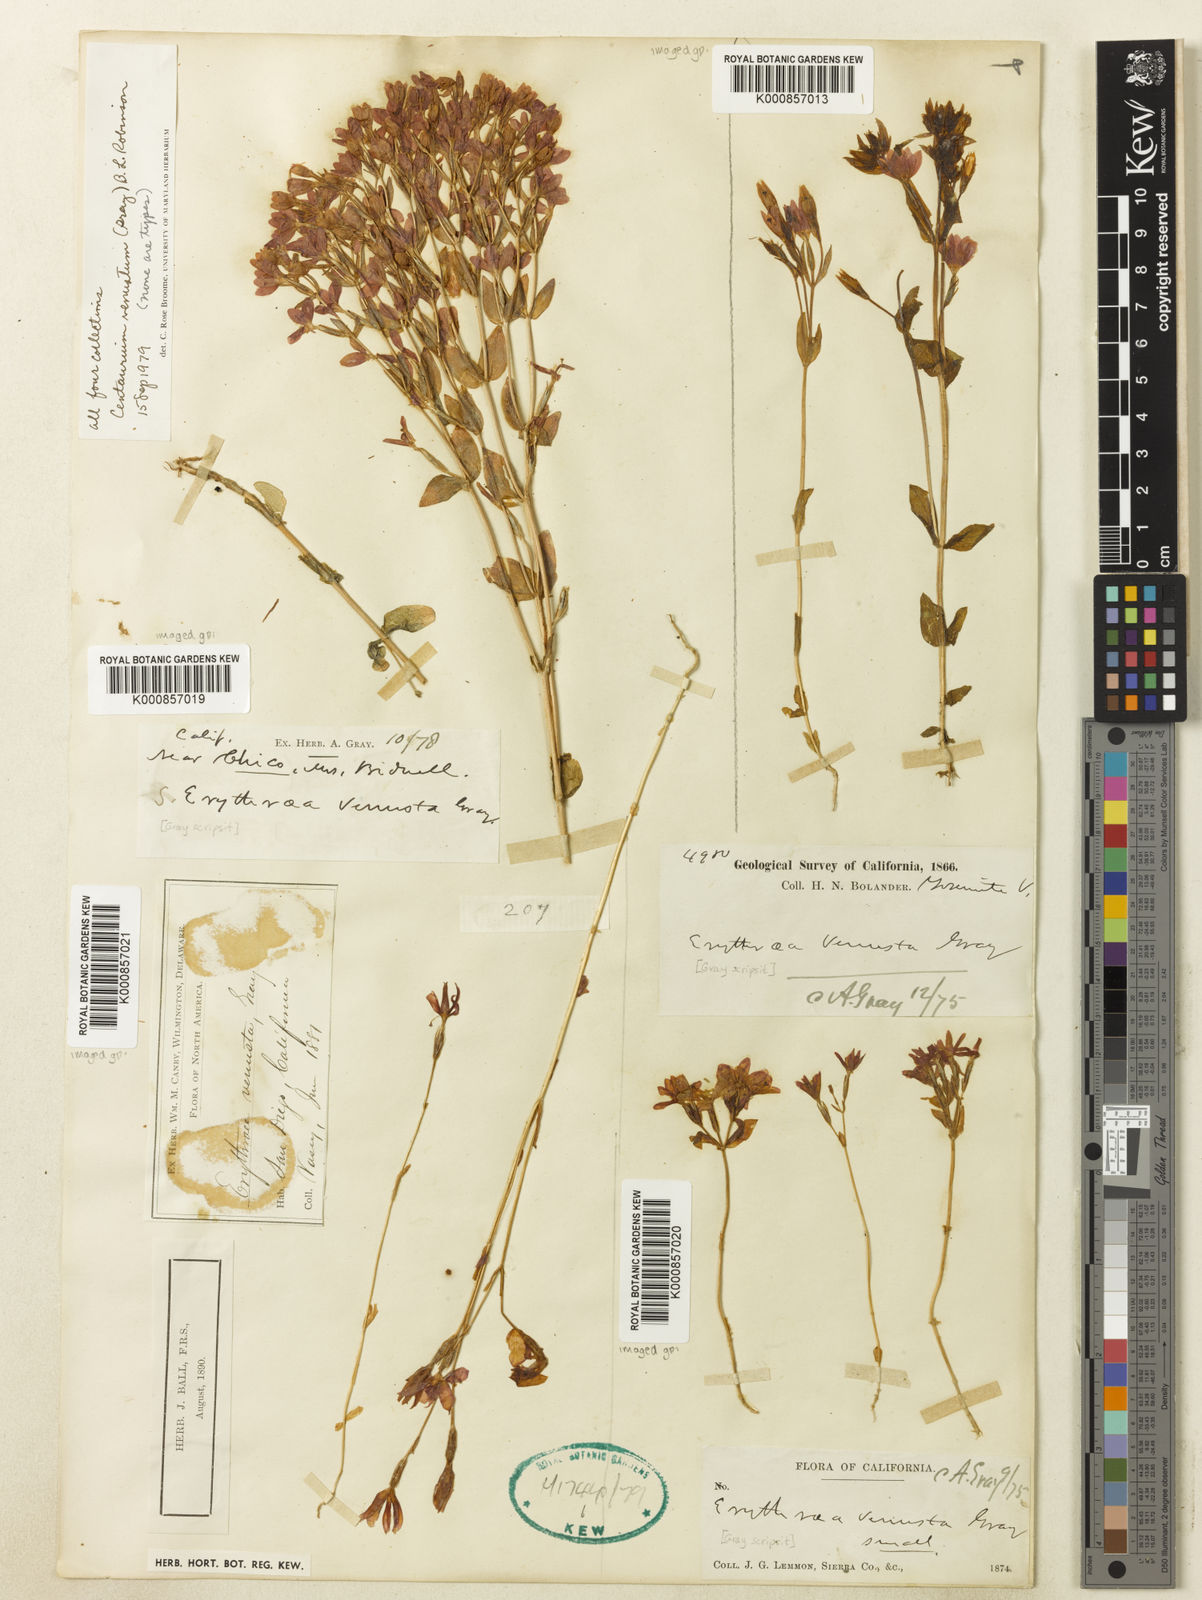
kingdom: Plantae
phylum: Tracheophyta
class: Magnoliopsida
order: Gentianales
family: Gentianaceae
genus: Zeltnera
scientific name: Zeltnera venusta
